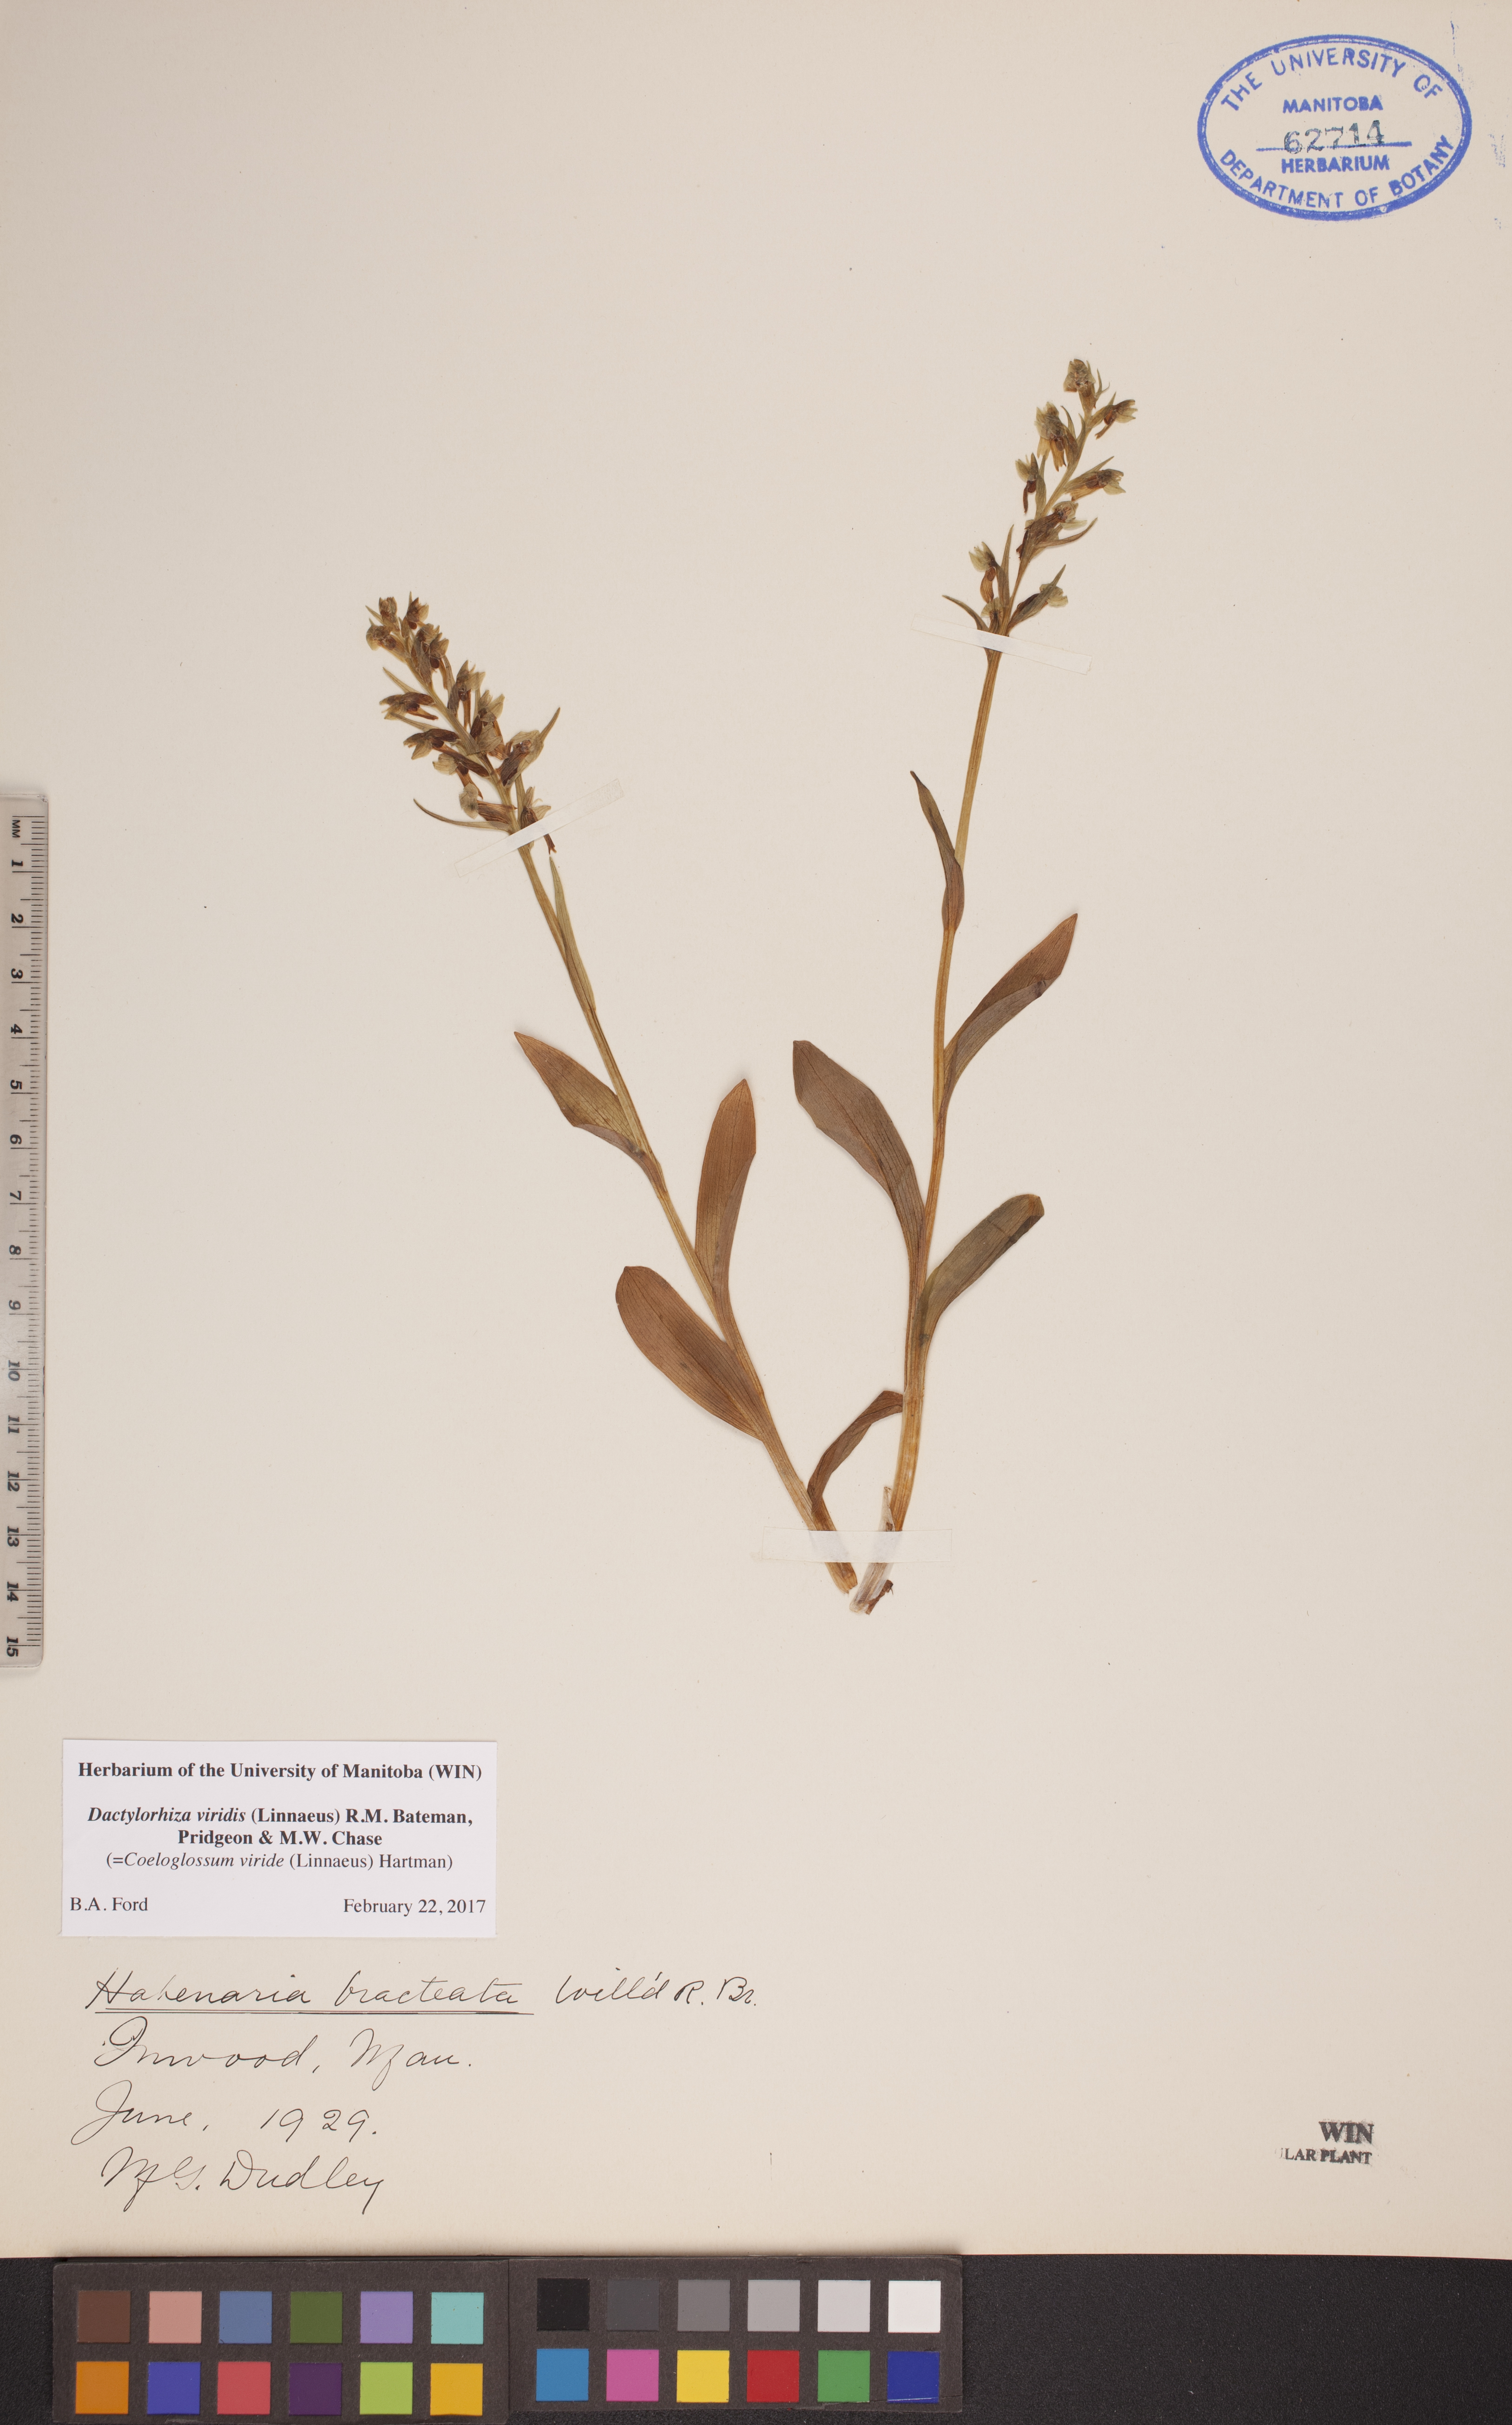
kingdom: Plantae
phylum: Tracheophyta
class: Liliopsida
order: Asparagales
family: Orchidaceae
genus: Dactylorhiza
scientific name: Dactylorhiza viridis
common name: Longbract frog orchid
